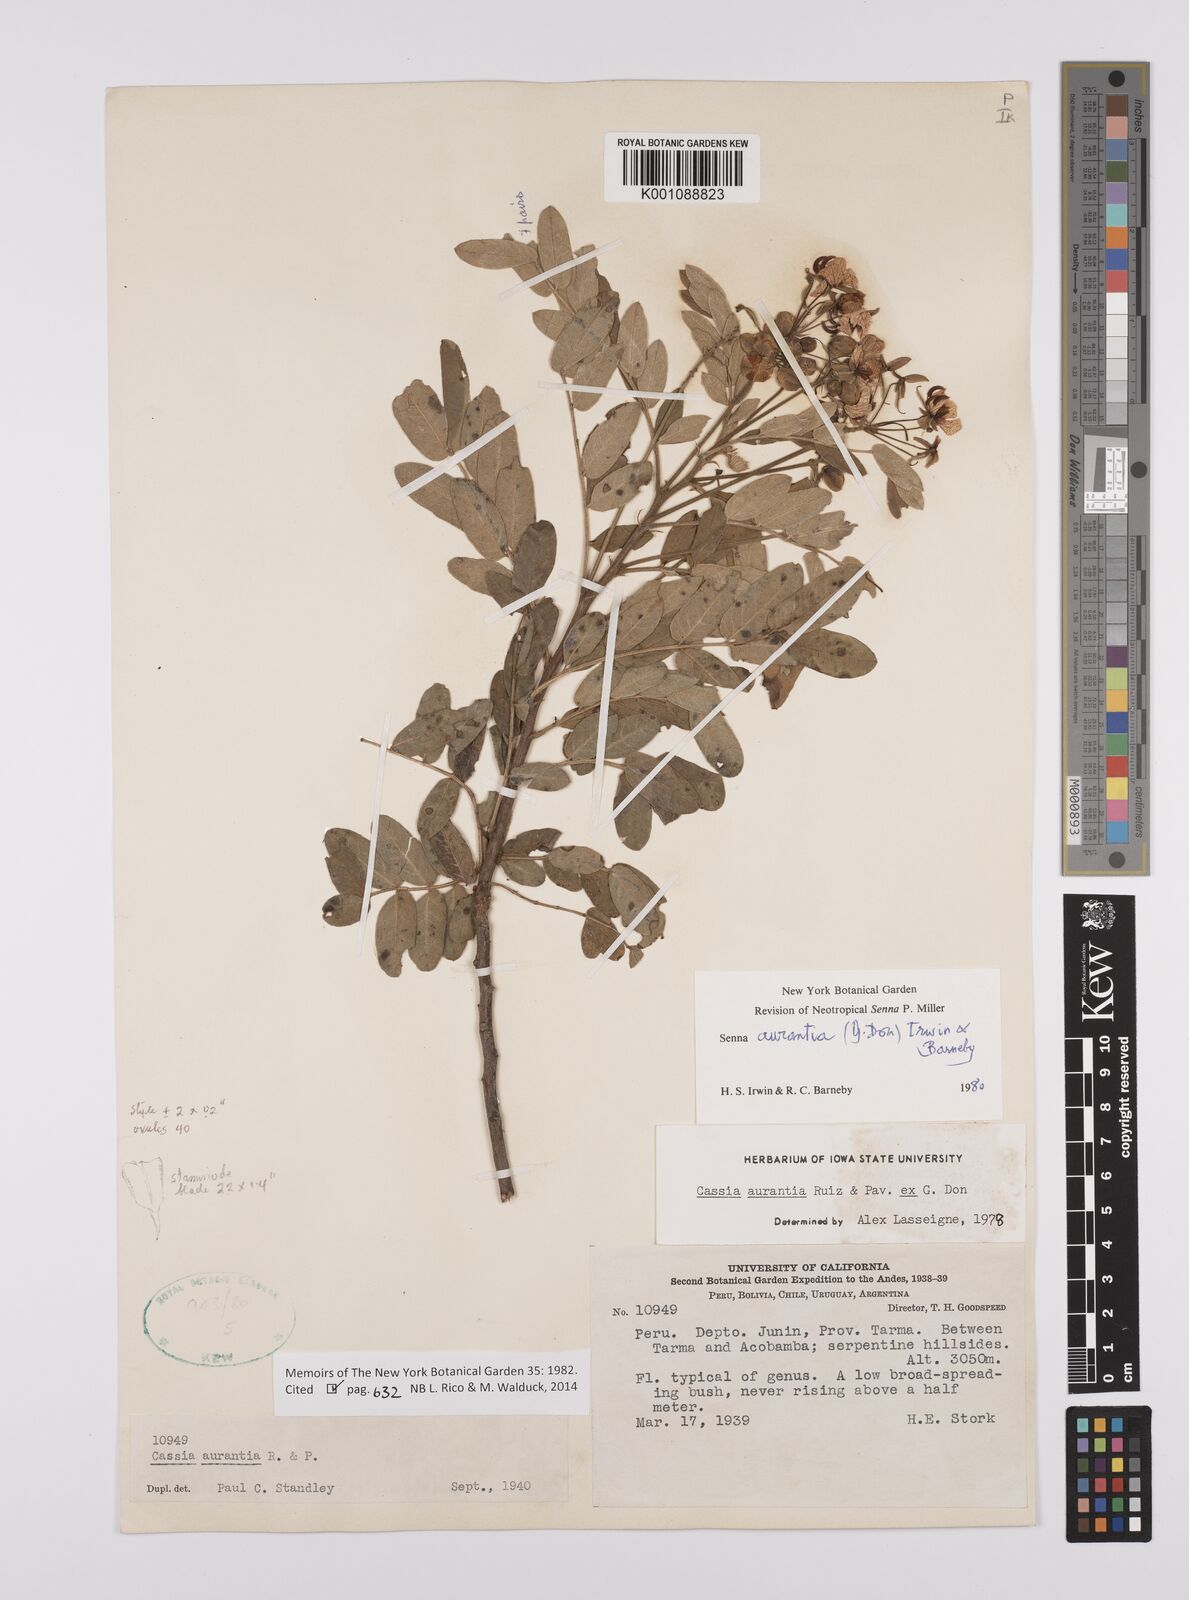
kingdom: Plantae
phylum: Tracheophyta
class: Magnoliopsida
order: Fabales
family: Fabaceae
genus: Senna
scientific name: Senna aurantia
